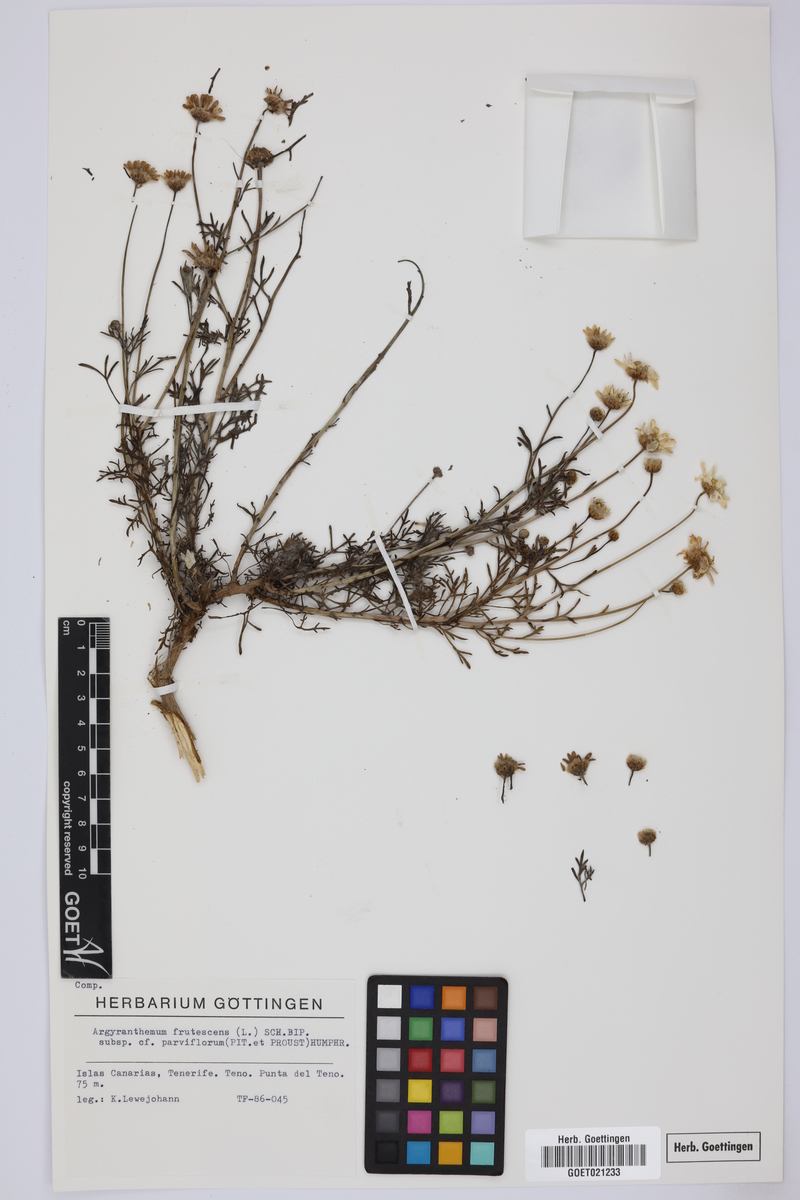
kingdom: Plantae
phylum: Tracheophyta
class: Magnoliopsida
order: Asterales
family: Asteraceae
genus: Argyranthemum
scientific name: Argyranthemum frutescens
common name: Paris daisy
